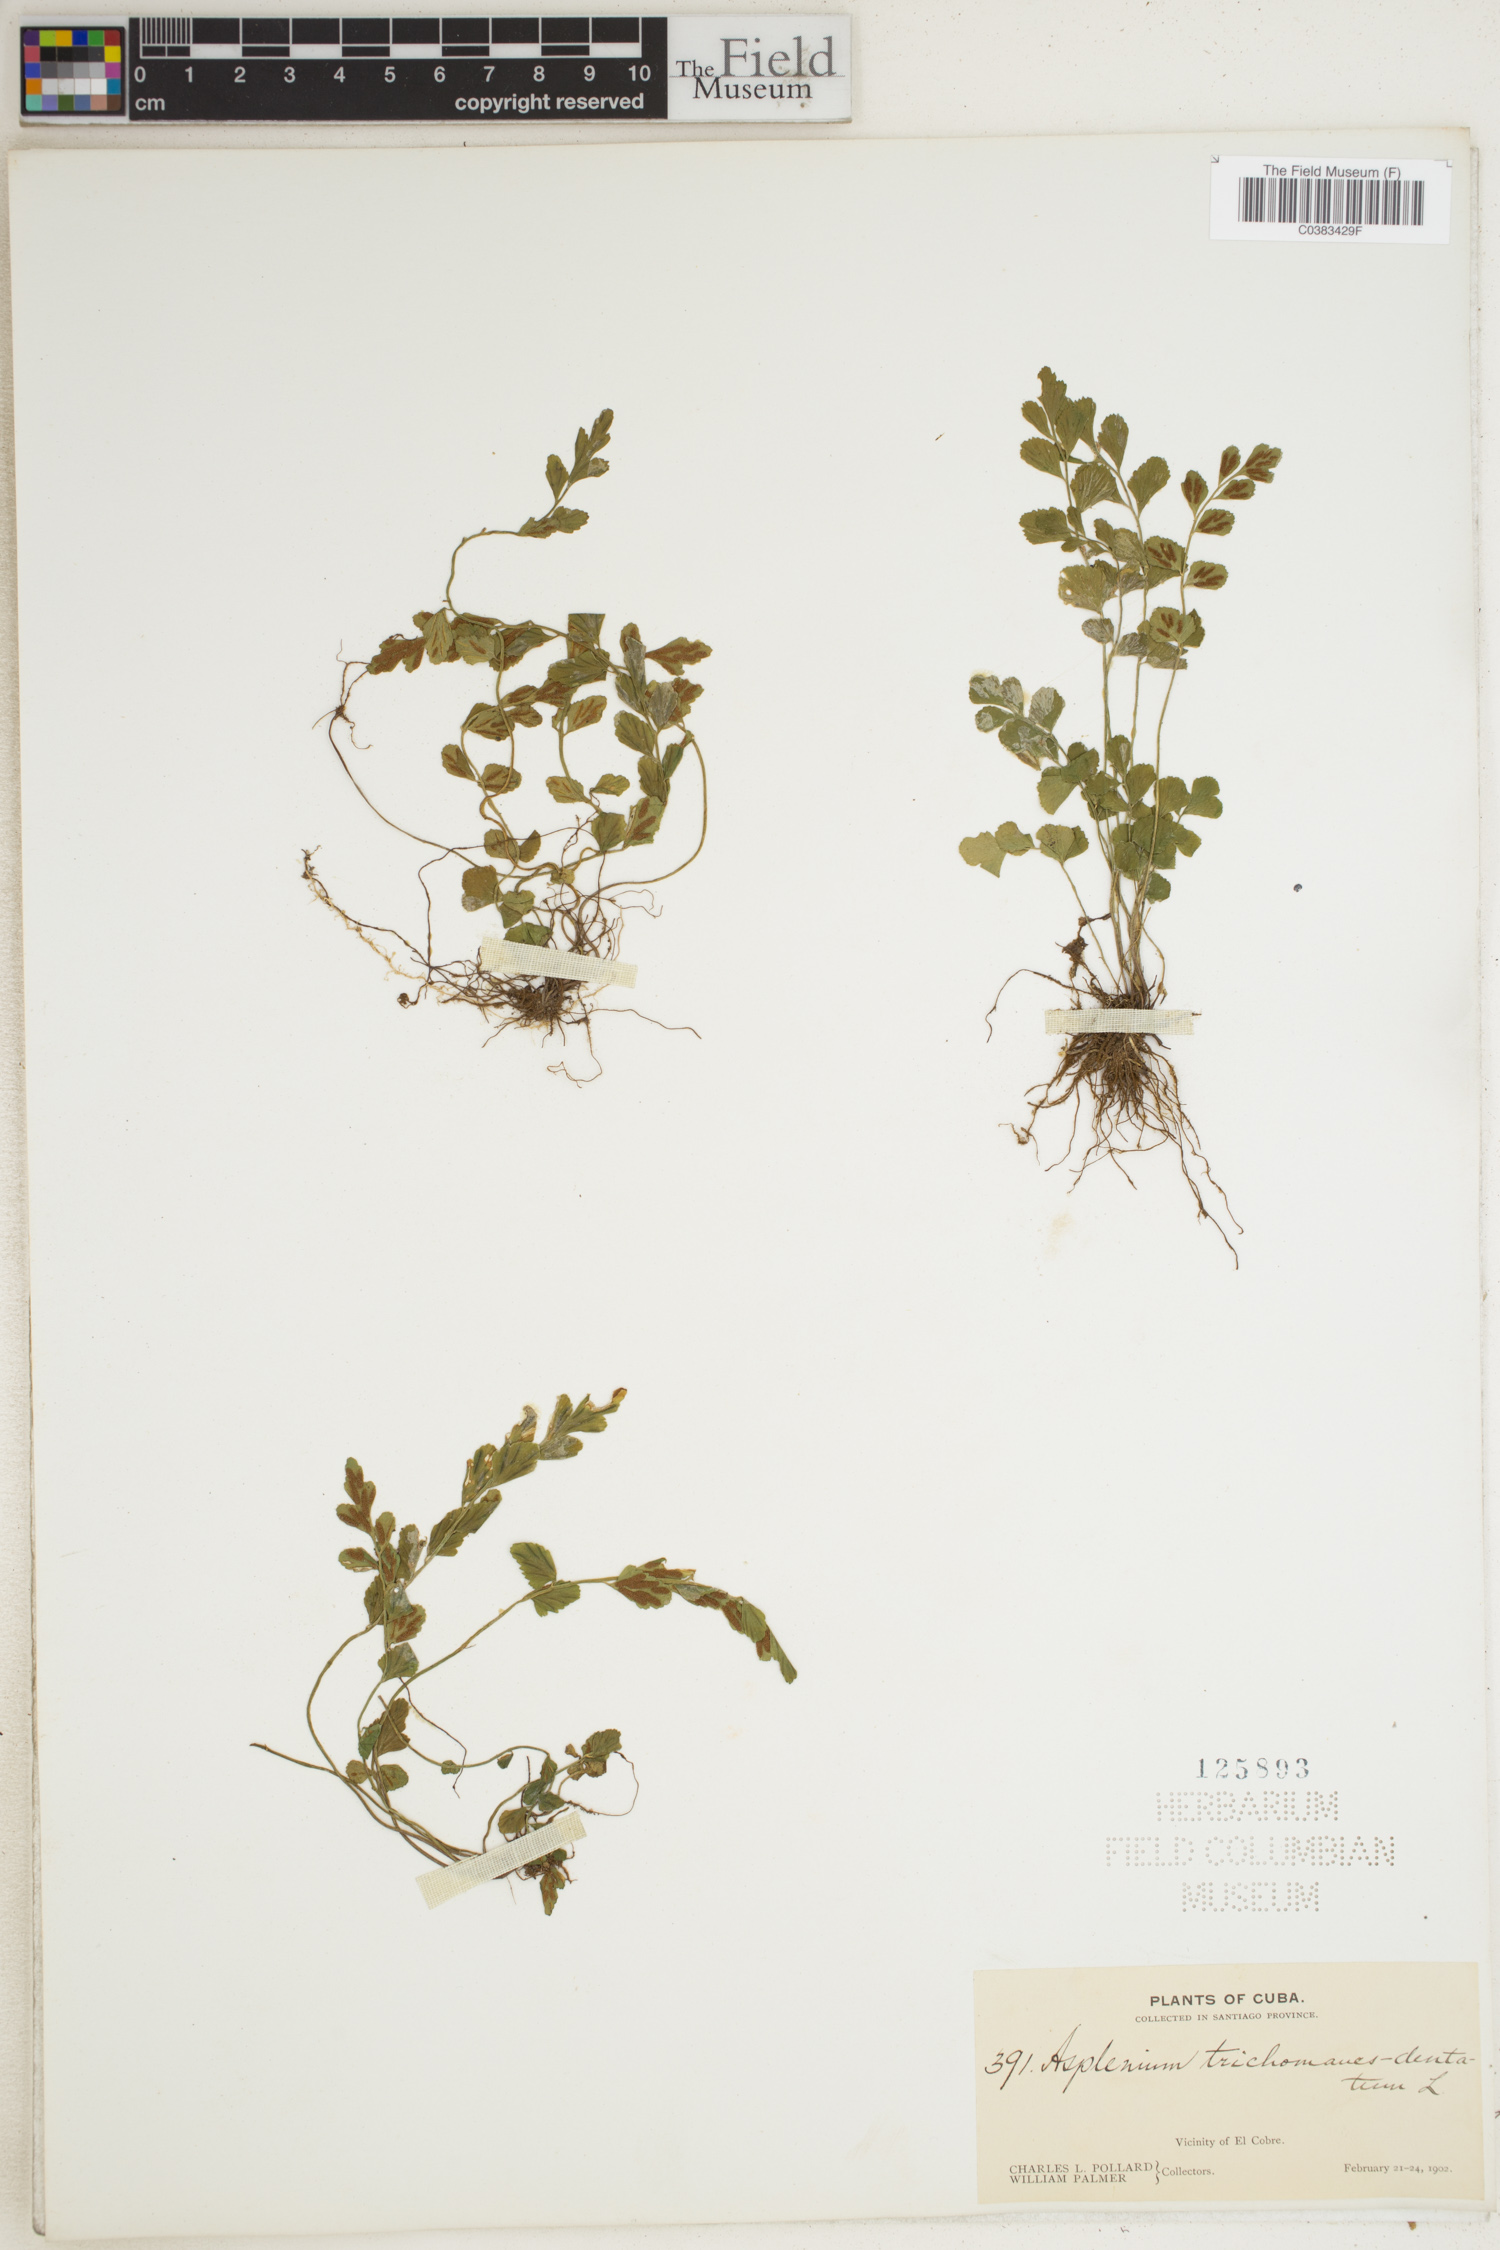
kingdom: Plantae
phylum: Tracheophyta
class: Polypodiopsida
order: Polypodiales
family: Aspleniaceae
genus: Asplenium
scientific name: Asplenium dentatum
